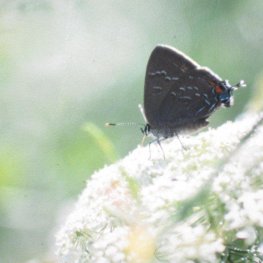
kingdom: Animalia
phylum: Arthropoda
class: Insecta
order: Lepidoptera
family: Lycaenidae
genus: Satyrium
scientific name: Satyrium calanus
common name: Banded Hairstreak
